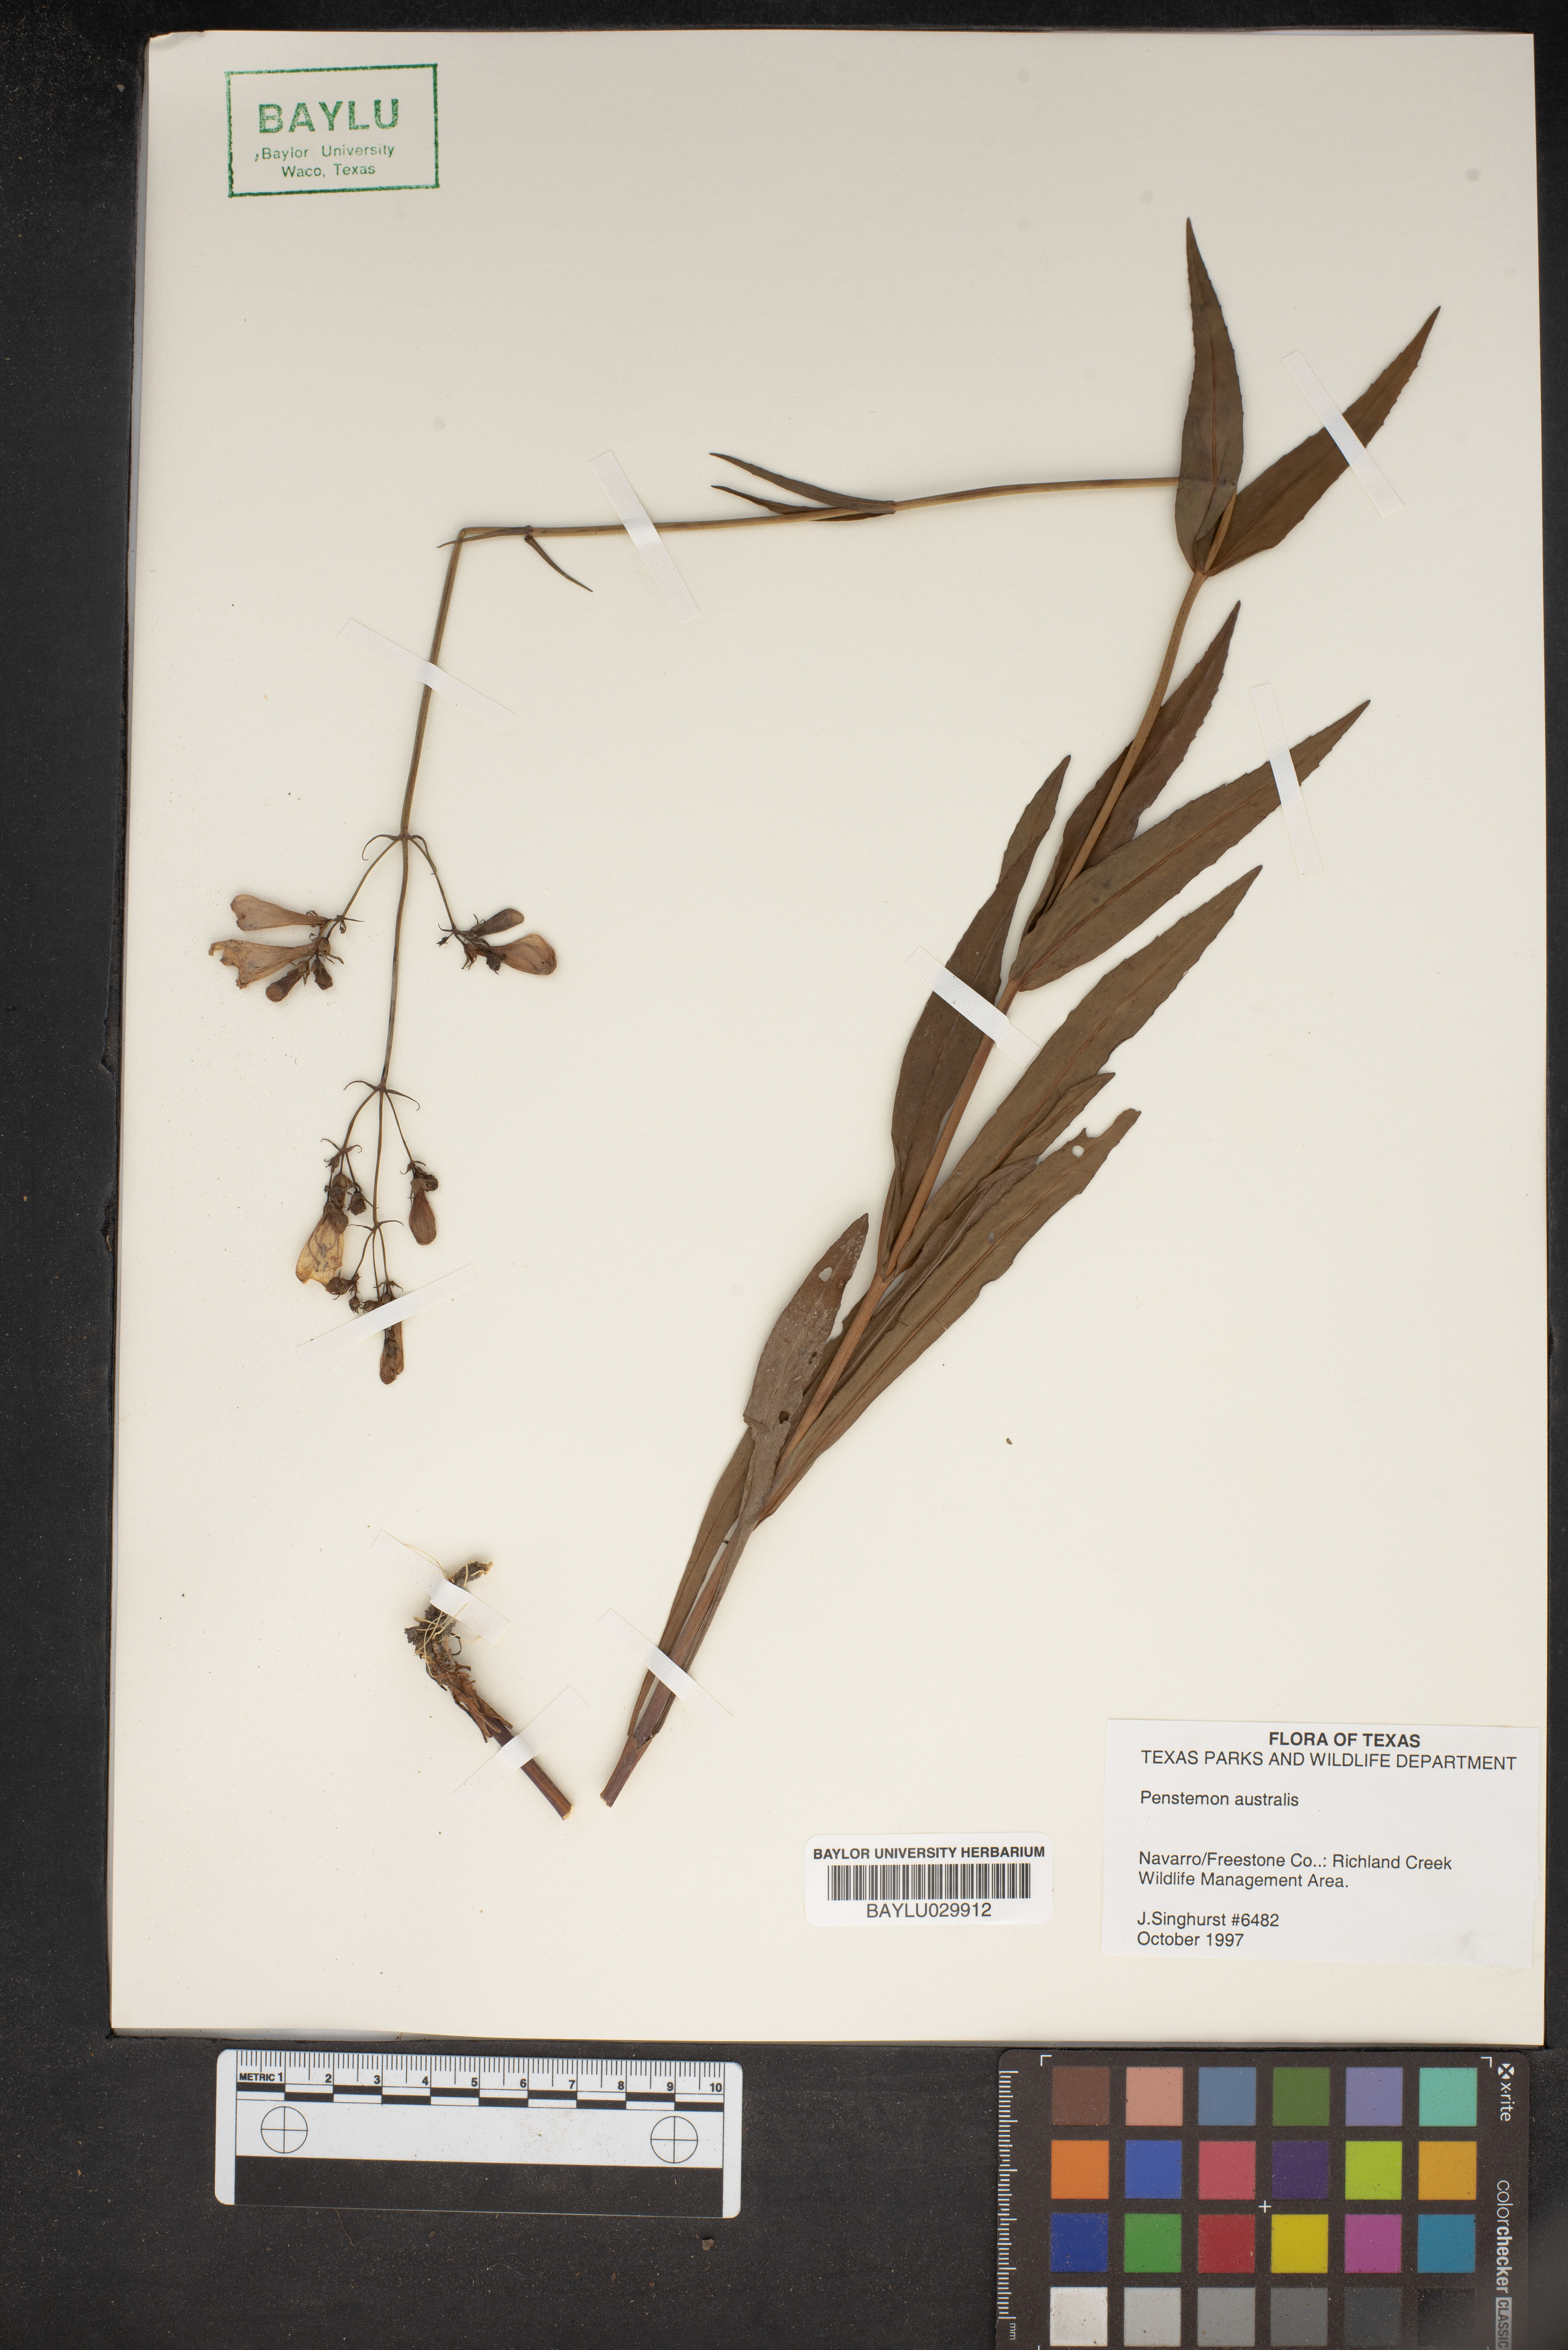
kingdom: Plantae
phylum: Tracheophyta
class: Magnoliopsida
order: Lamiales
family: Plantaginaceae
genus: Penstemon
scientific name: Penstemon australis
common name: Southeastern beardtongue
